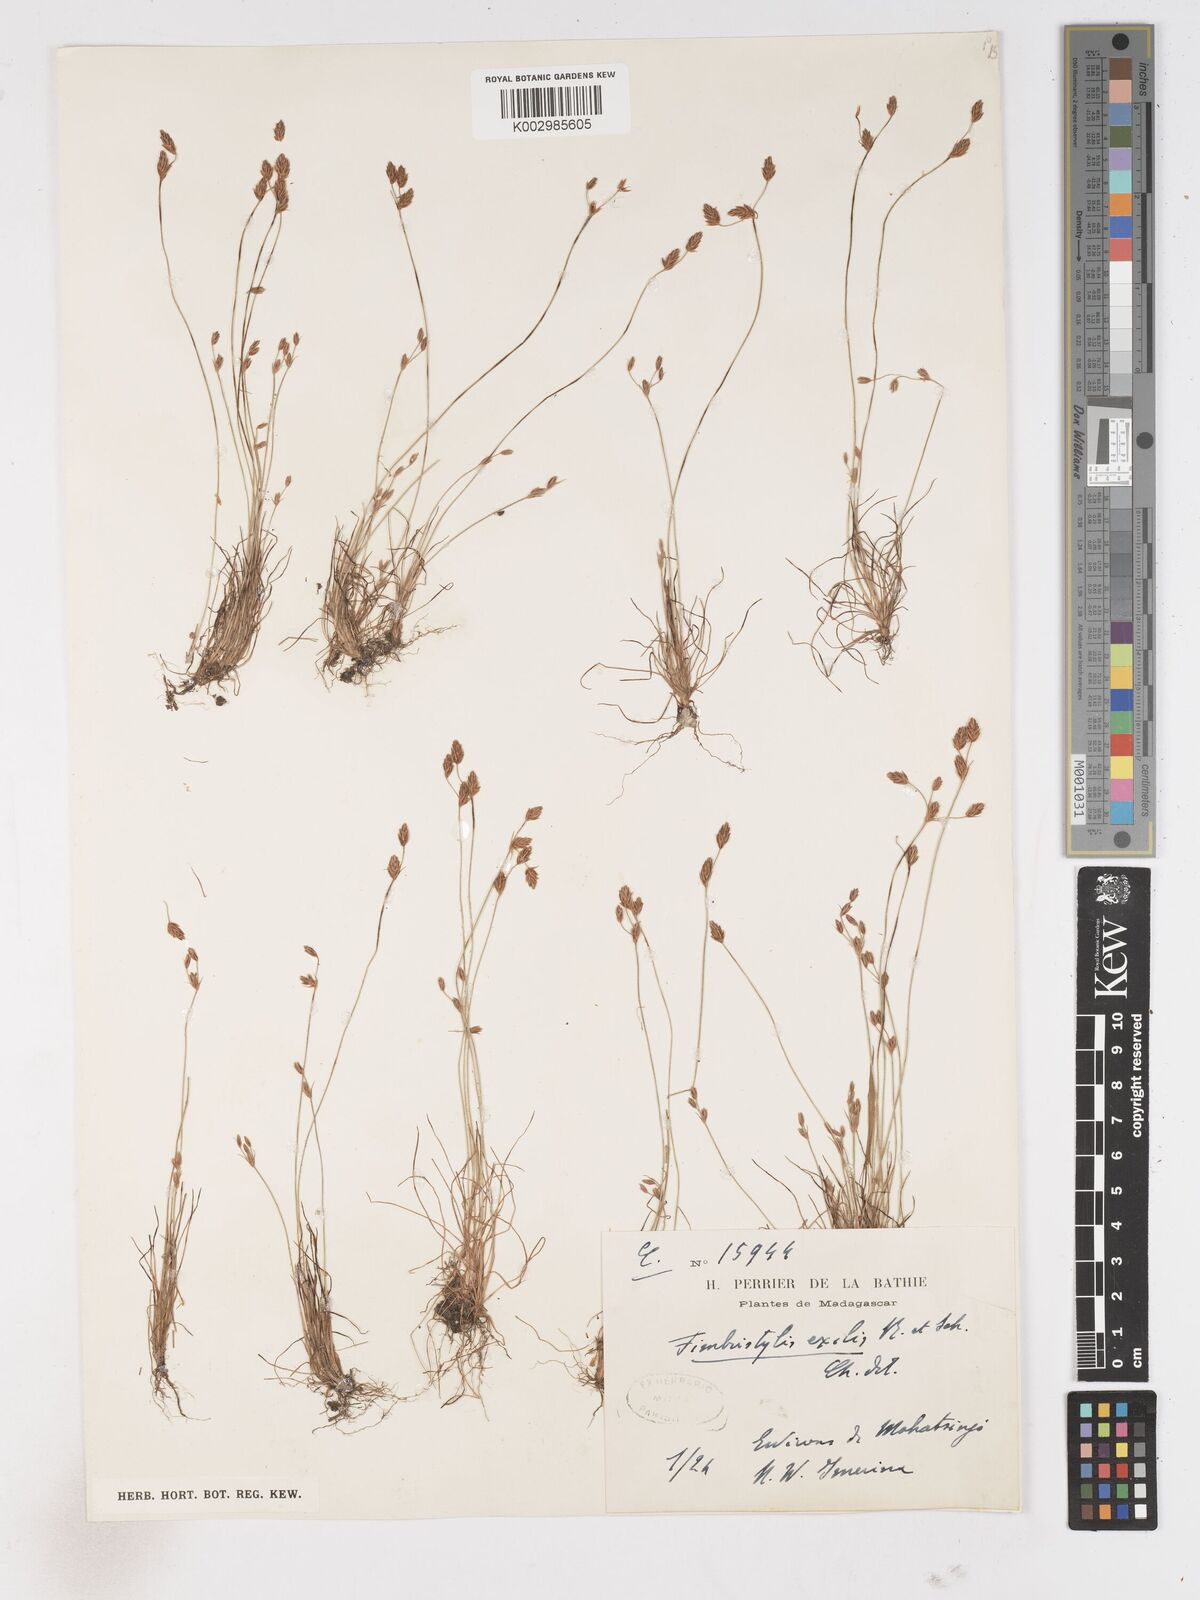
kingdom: Plantae
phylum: Tracheophyta
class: Liliopsida
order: Poales
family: Cyperaceae
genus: Bulbostylis
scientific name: Bulbostylis hispidula
